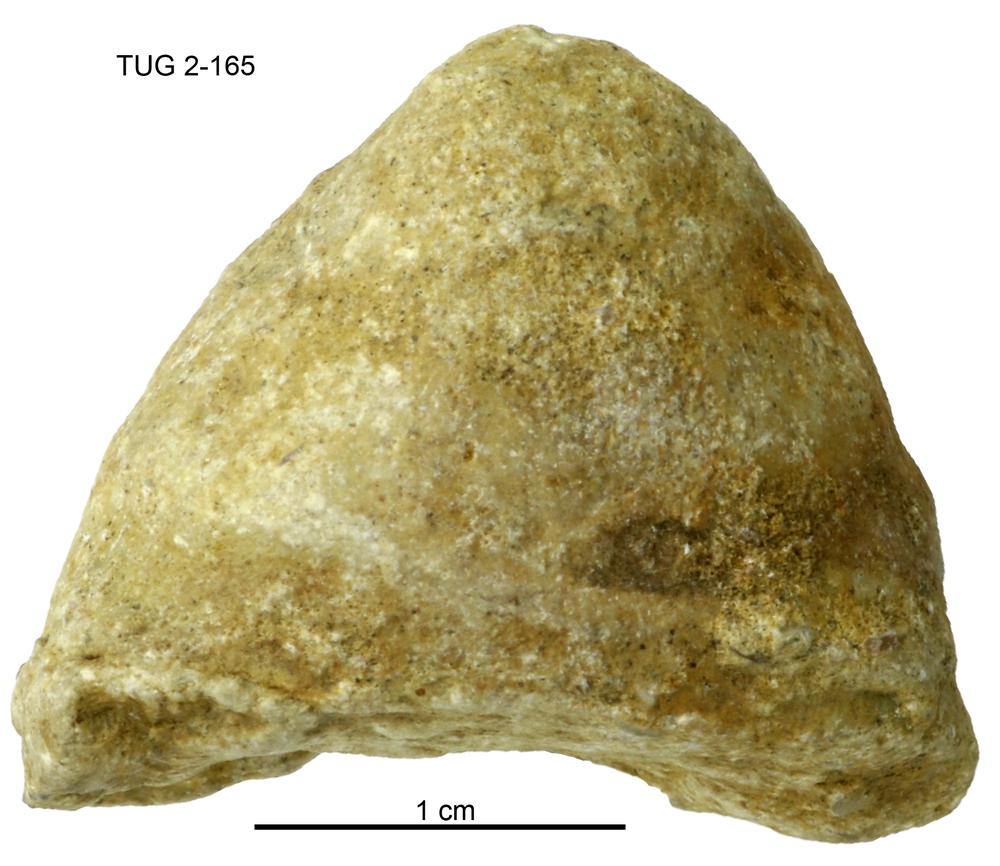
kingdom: Animalia
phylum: Mollusca
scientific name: Mollusca
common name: Mollusca
